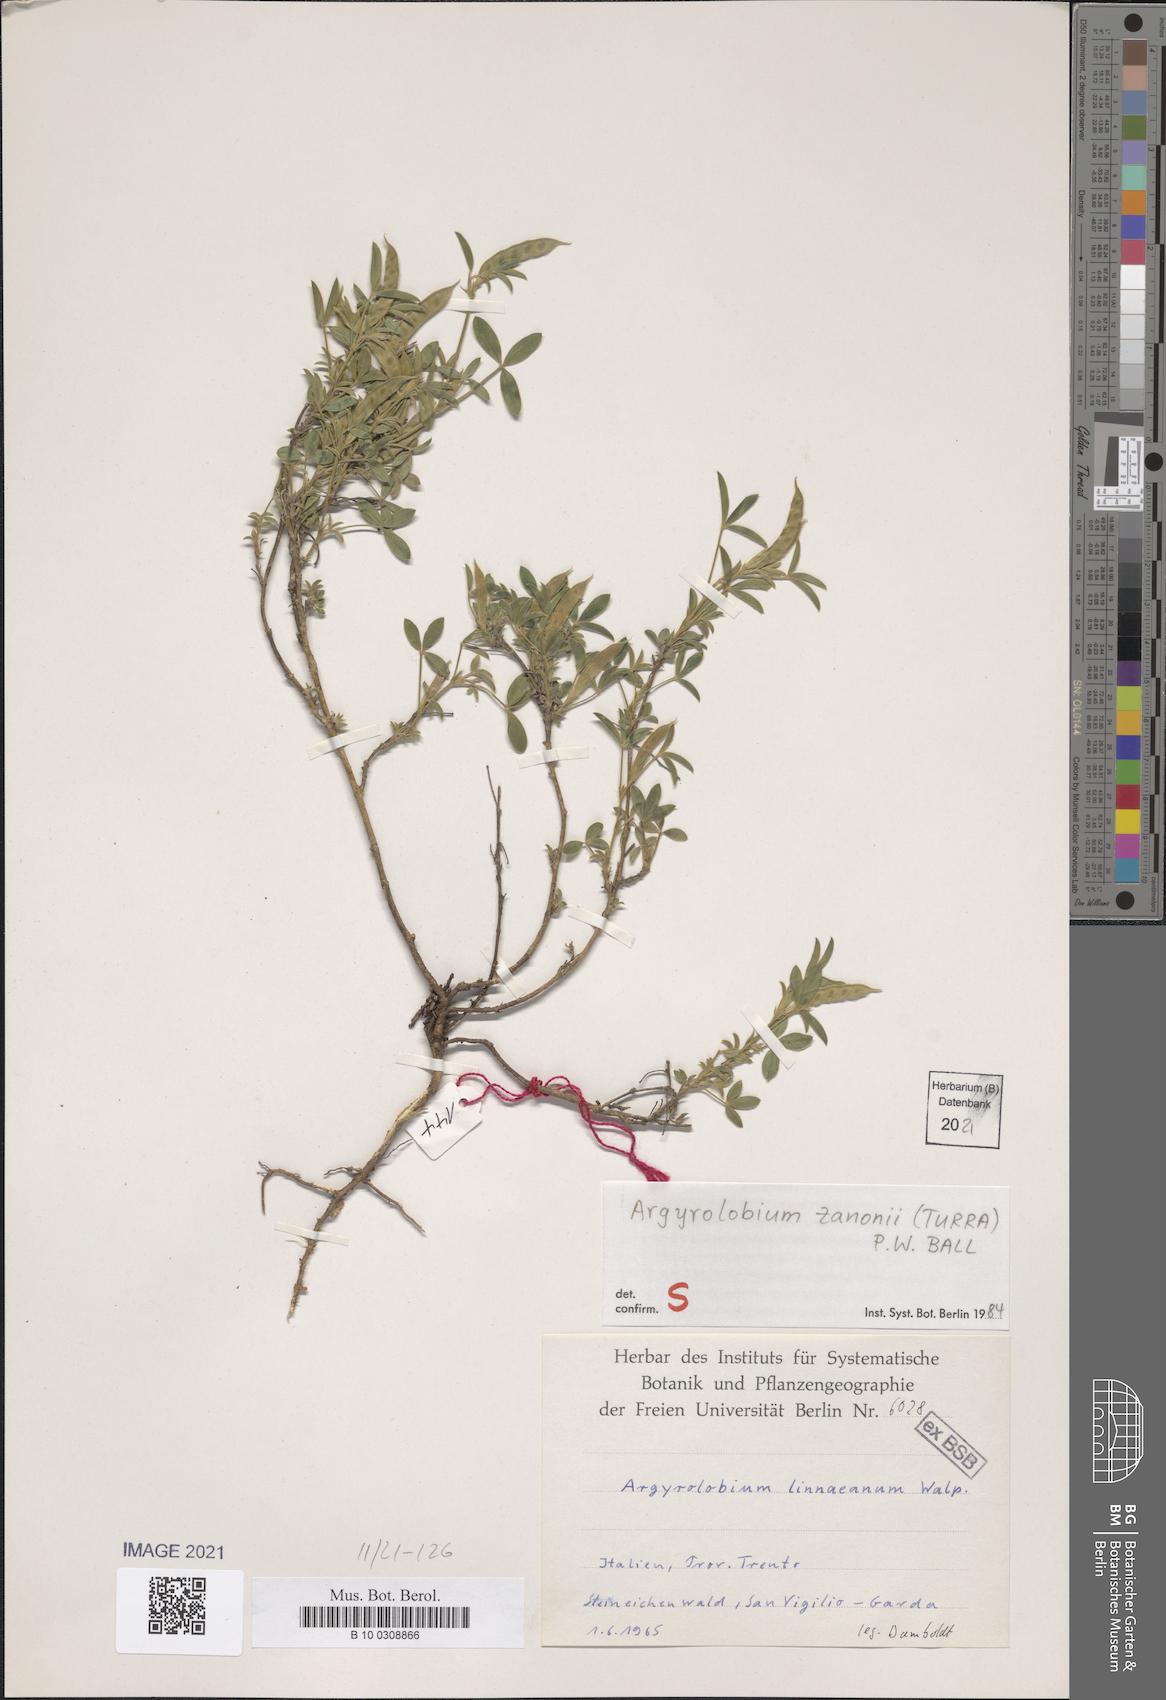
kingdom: Plantae
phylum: Tracheophyta
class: Magnoliopsida
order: Fabales
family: Fabaceae
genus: Argyrolobium
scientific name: Argyrolobium zanonii
